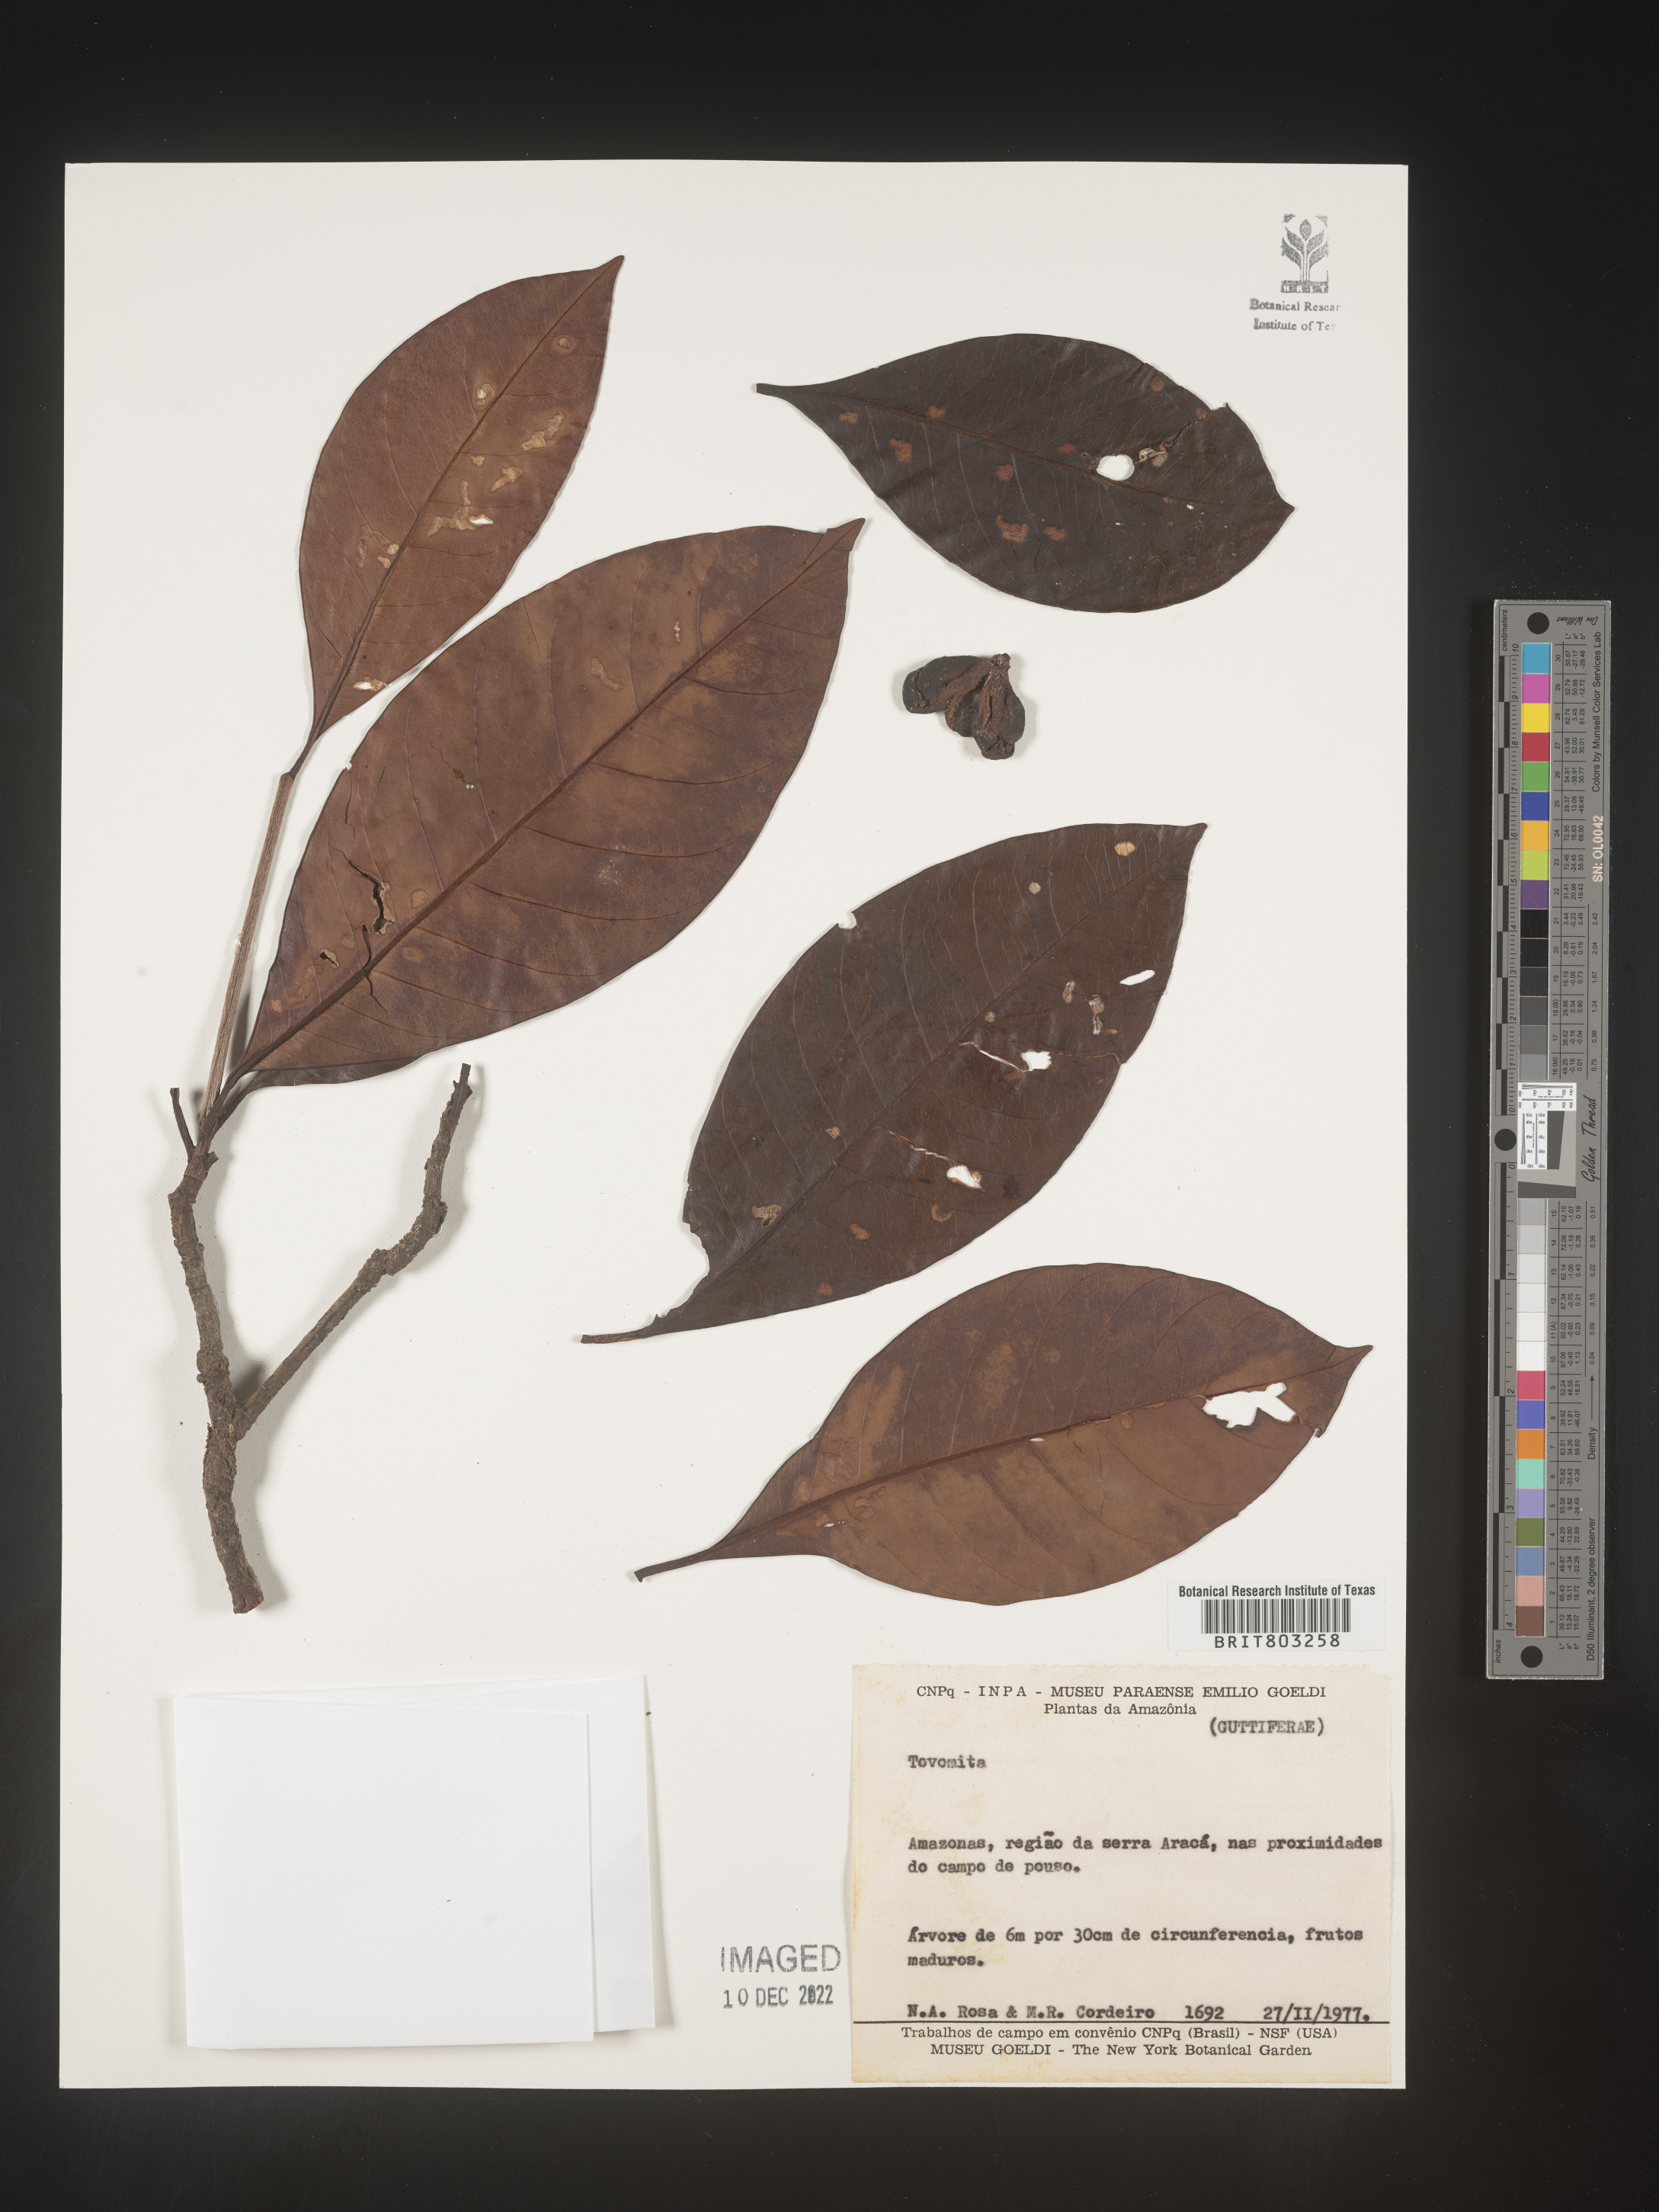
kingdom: Plantae
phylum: Tracheophyta
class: Magnoliopsida
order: Malpighiales
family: Clusiaceae
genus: Tovomita
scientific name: Tovomita
